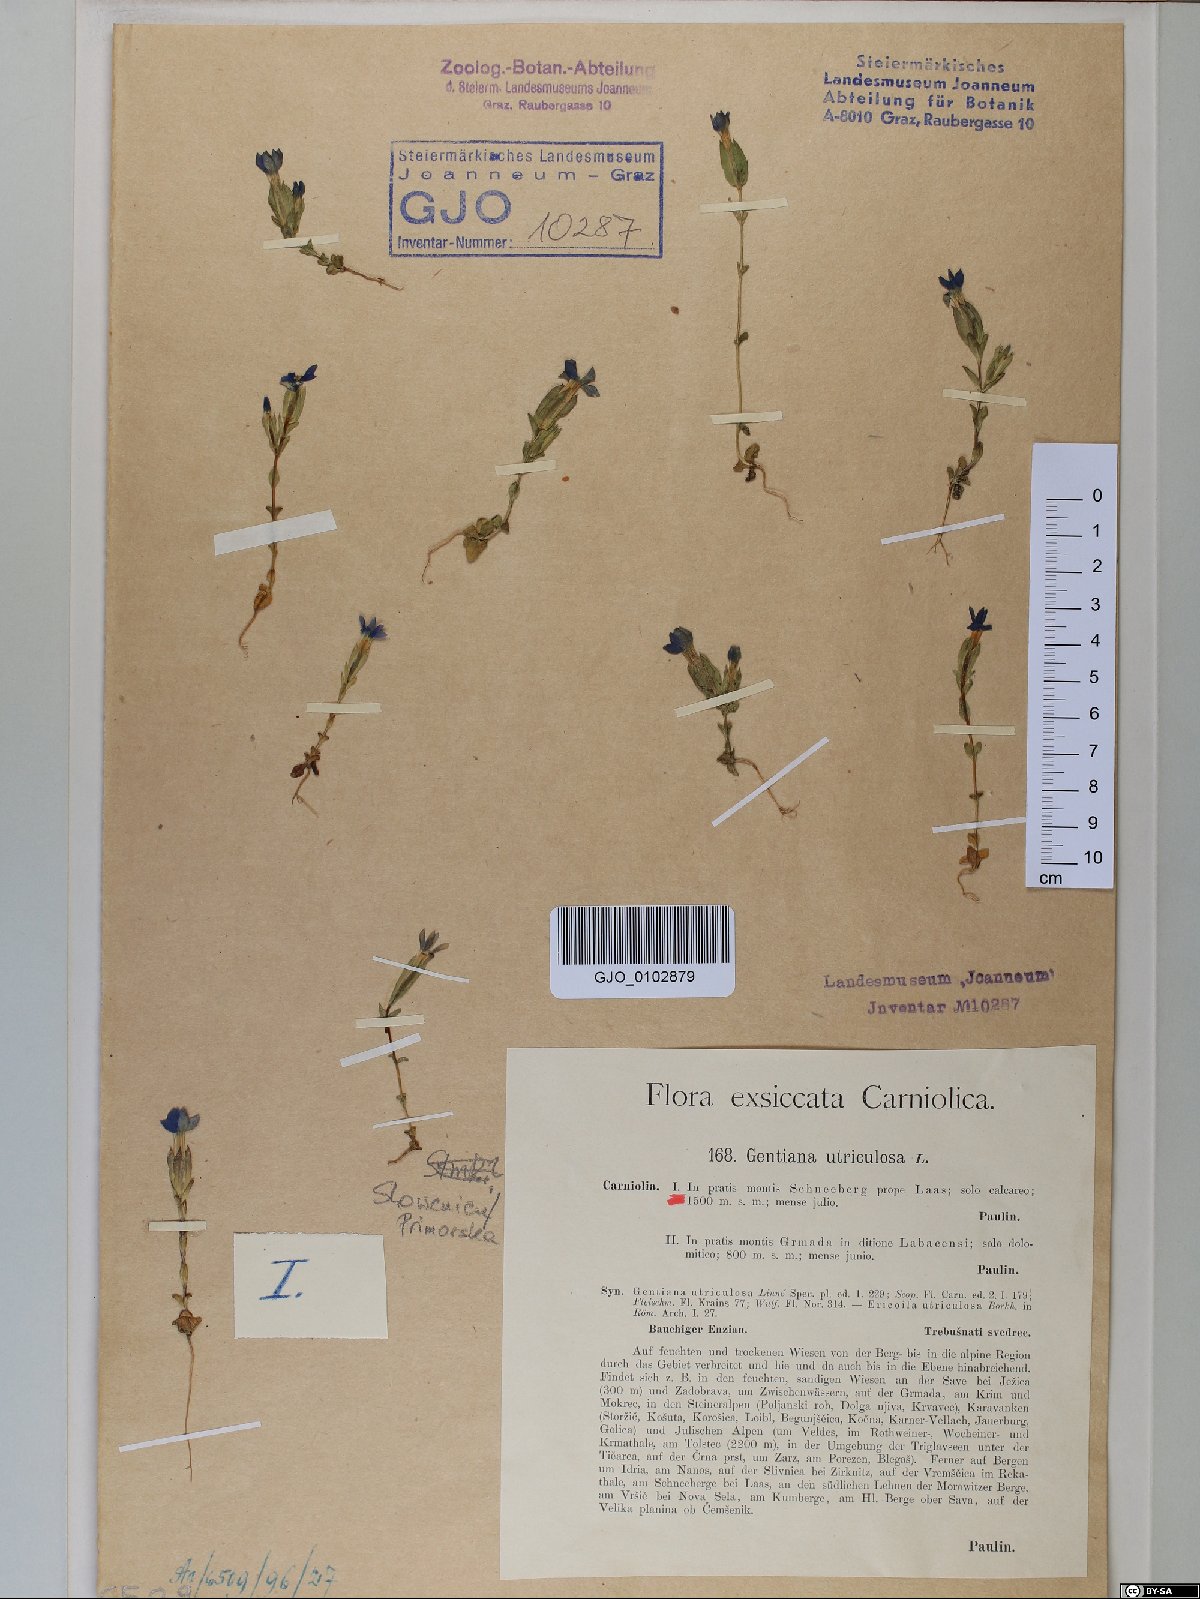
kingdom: Plantae
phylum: Tracheophyta
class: Magnoliopsida
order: Gentianales
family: Gentianaceae
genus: Gentiana
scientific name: Gentiana utriculosa
